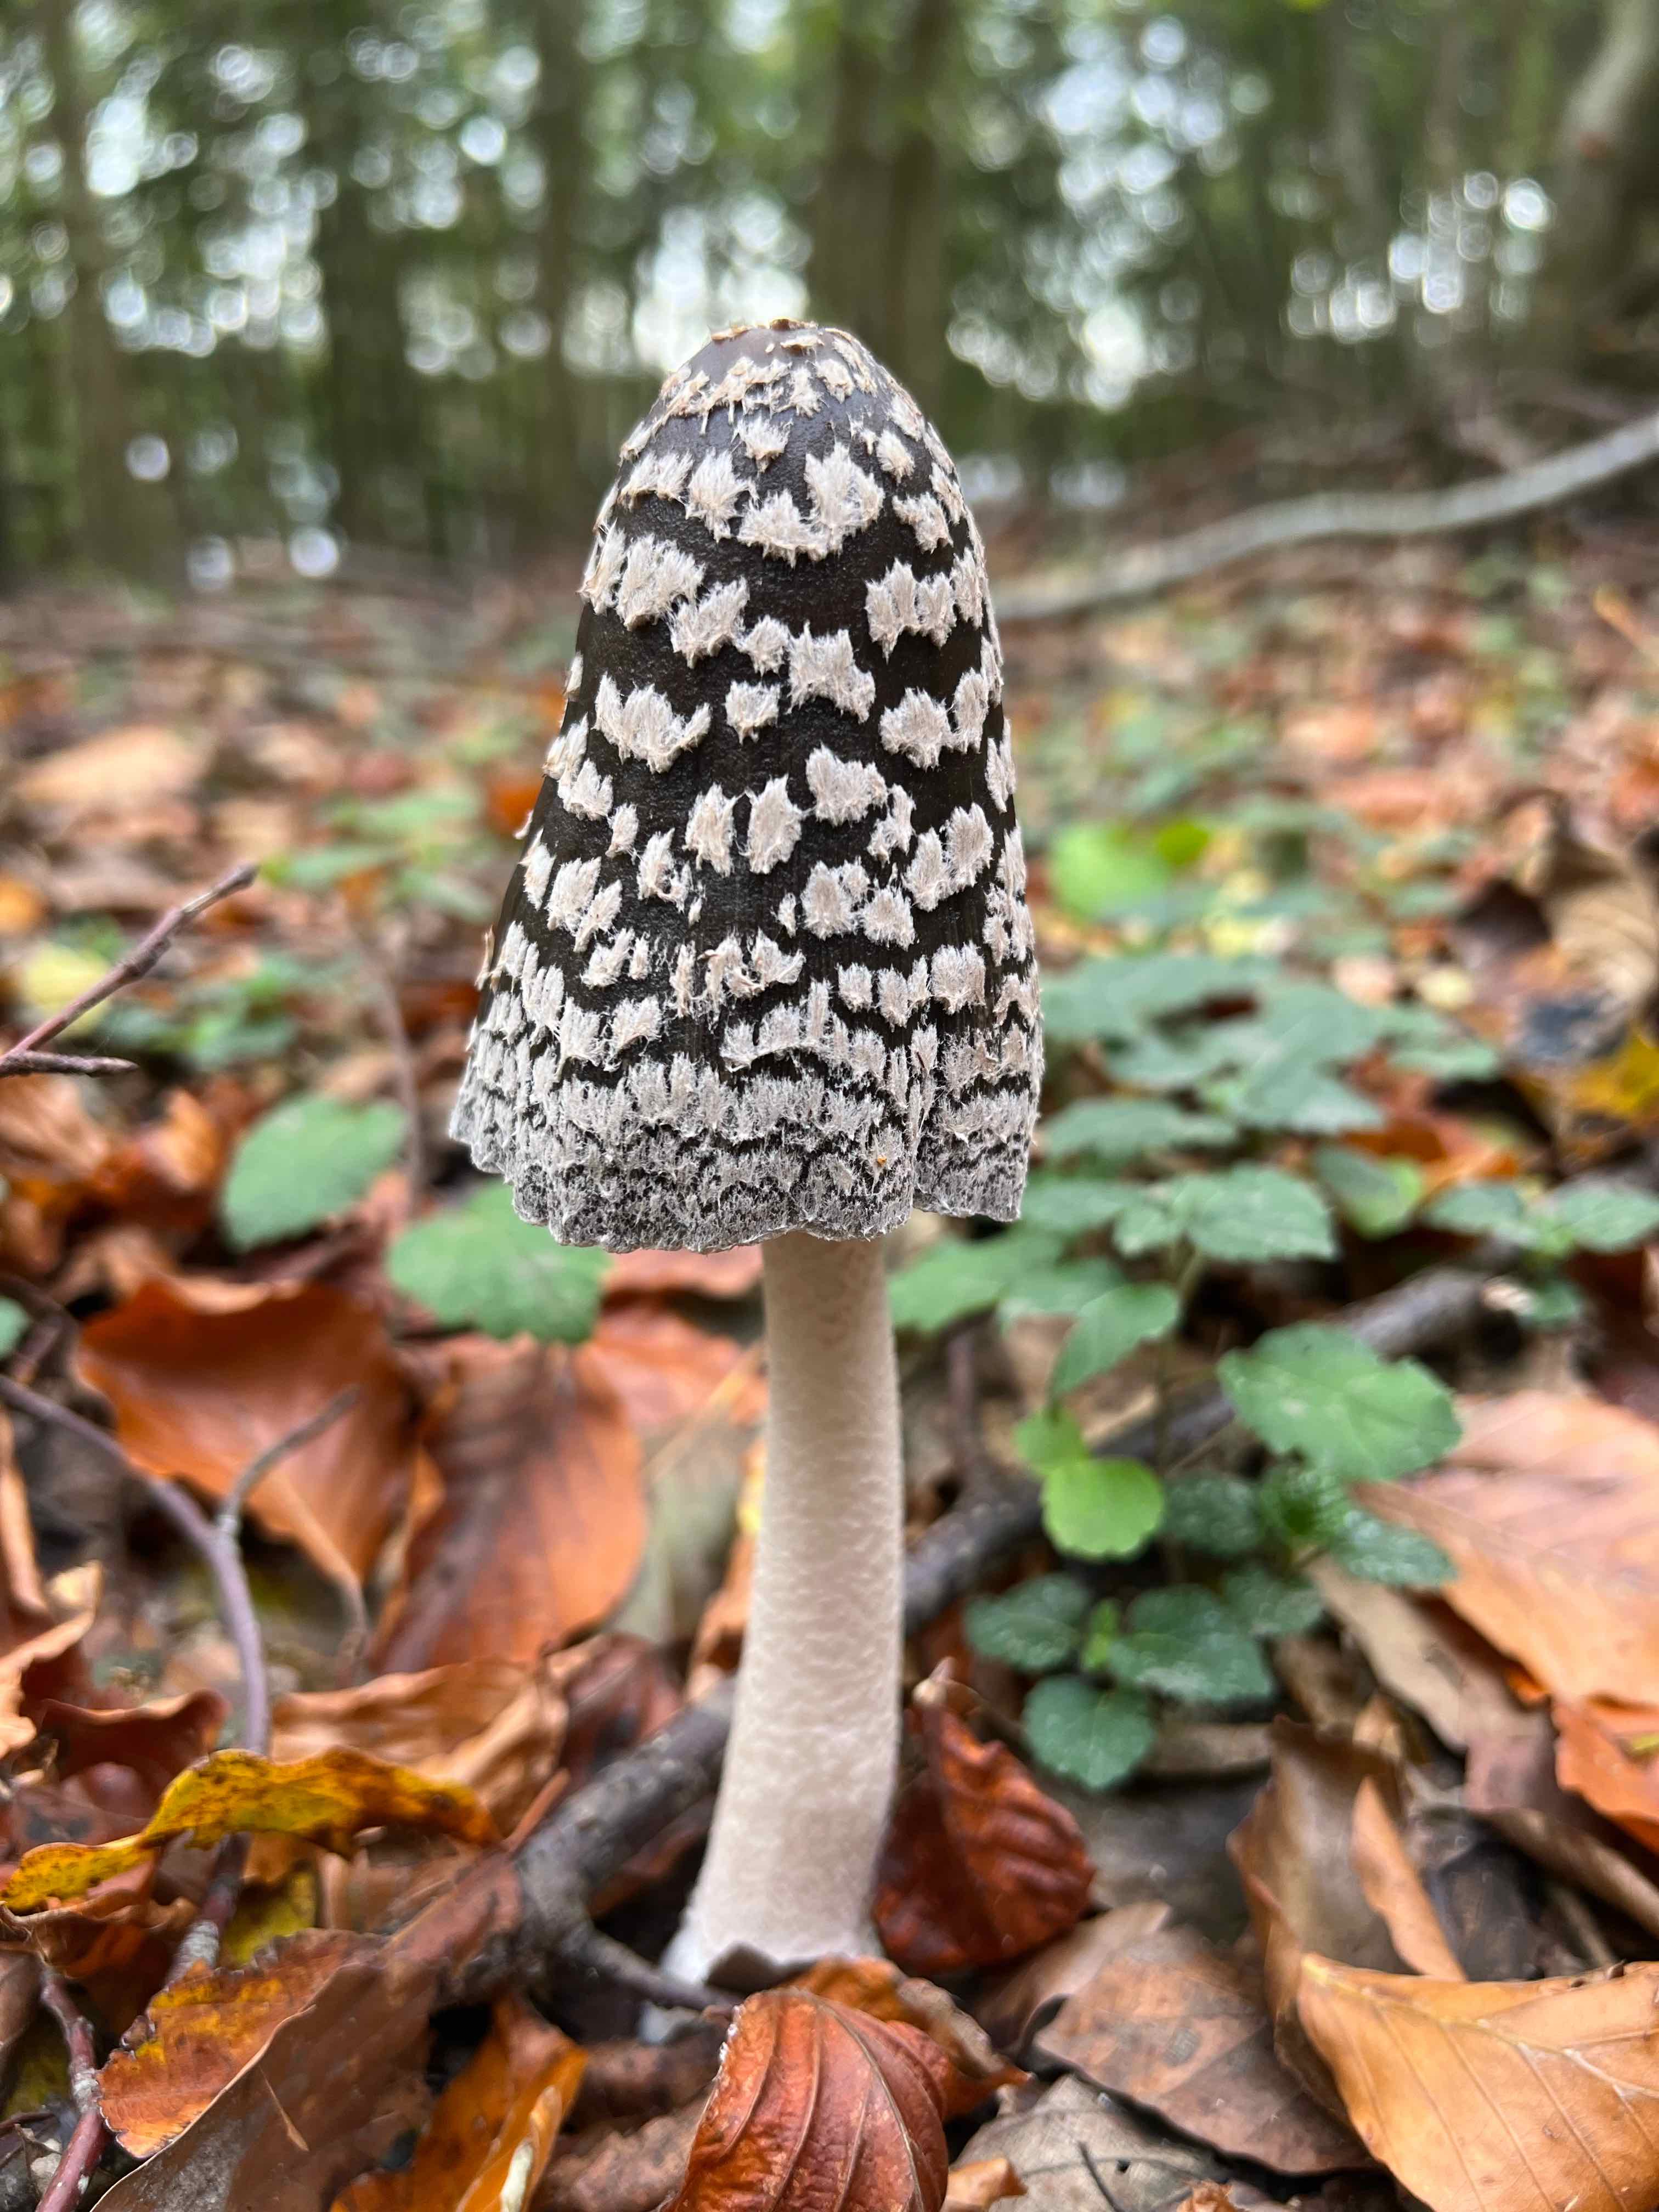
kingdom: Fungi
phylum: Basidiomycota
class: Agaricomycetes
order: Agaricales
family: Psathyrellaceae
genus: Coprinopsis
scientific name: Coprinopsis picacea
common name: skade-blækhat
